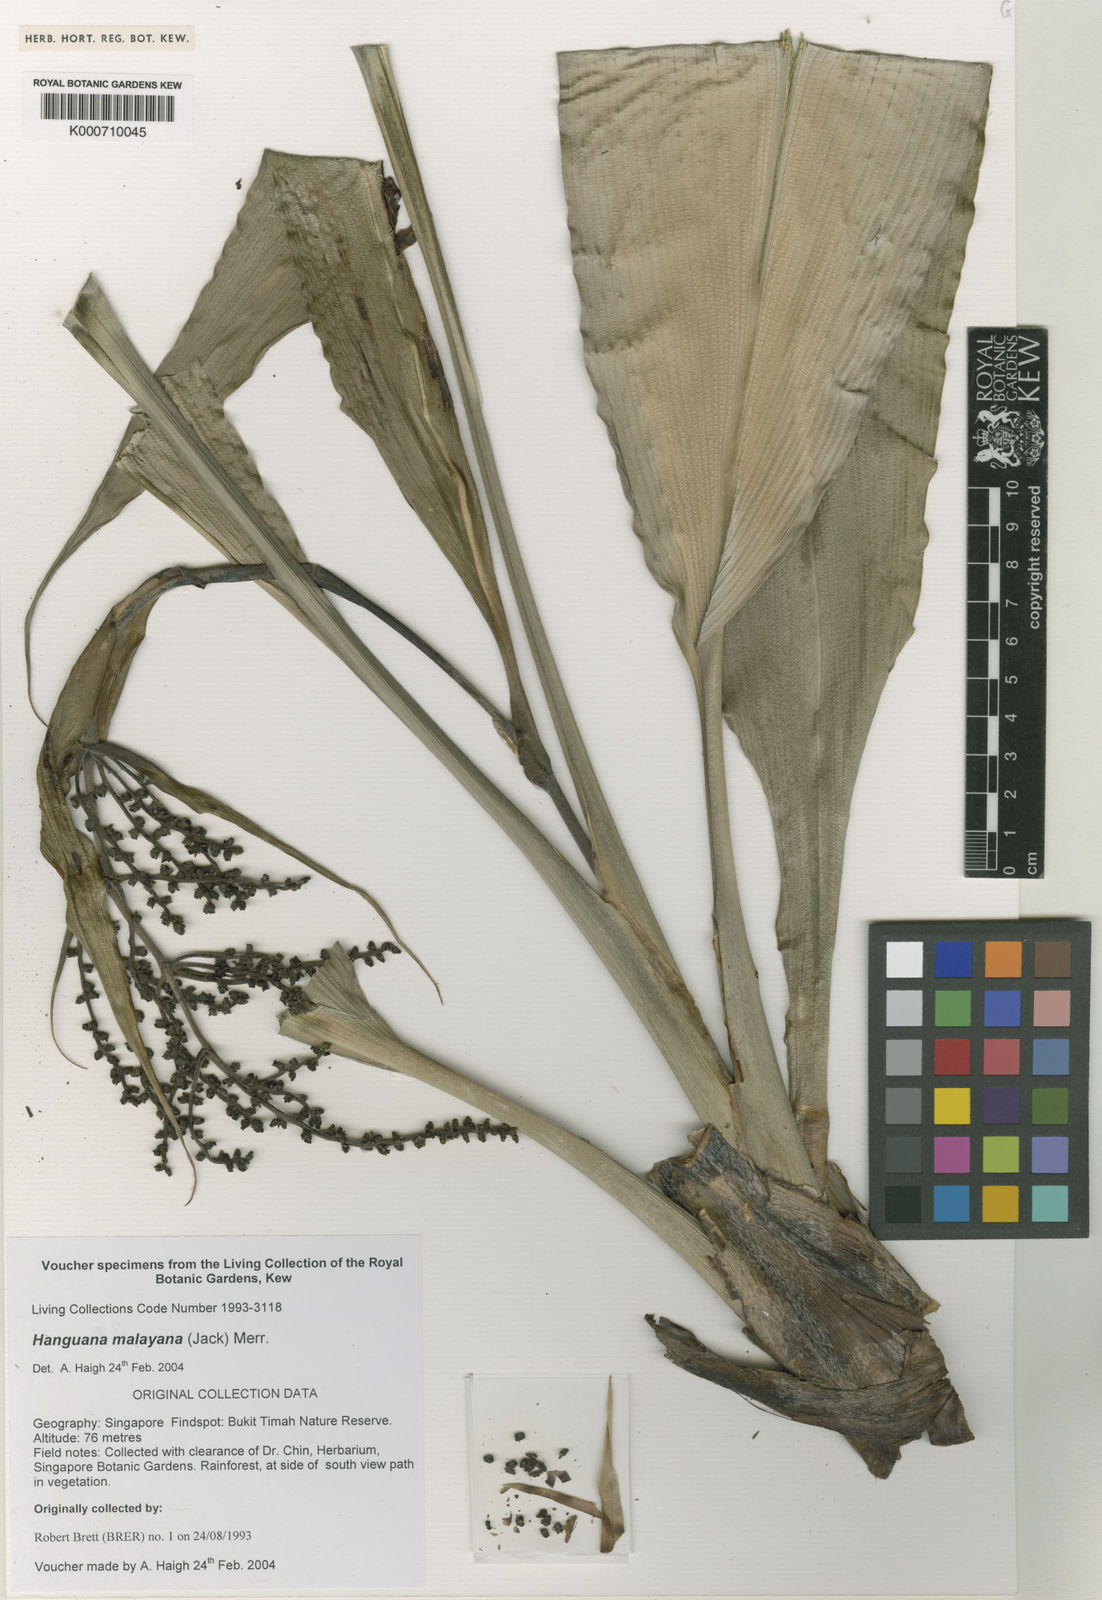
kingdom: Plantae
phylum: Tracheophyta
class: Liliopsida
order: Commelinales
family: Hanguanaceae
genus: Hanguana
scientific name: Hanguana malayana
